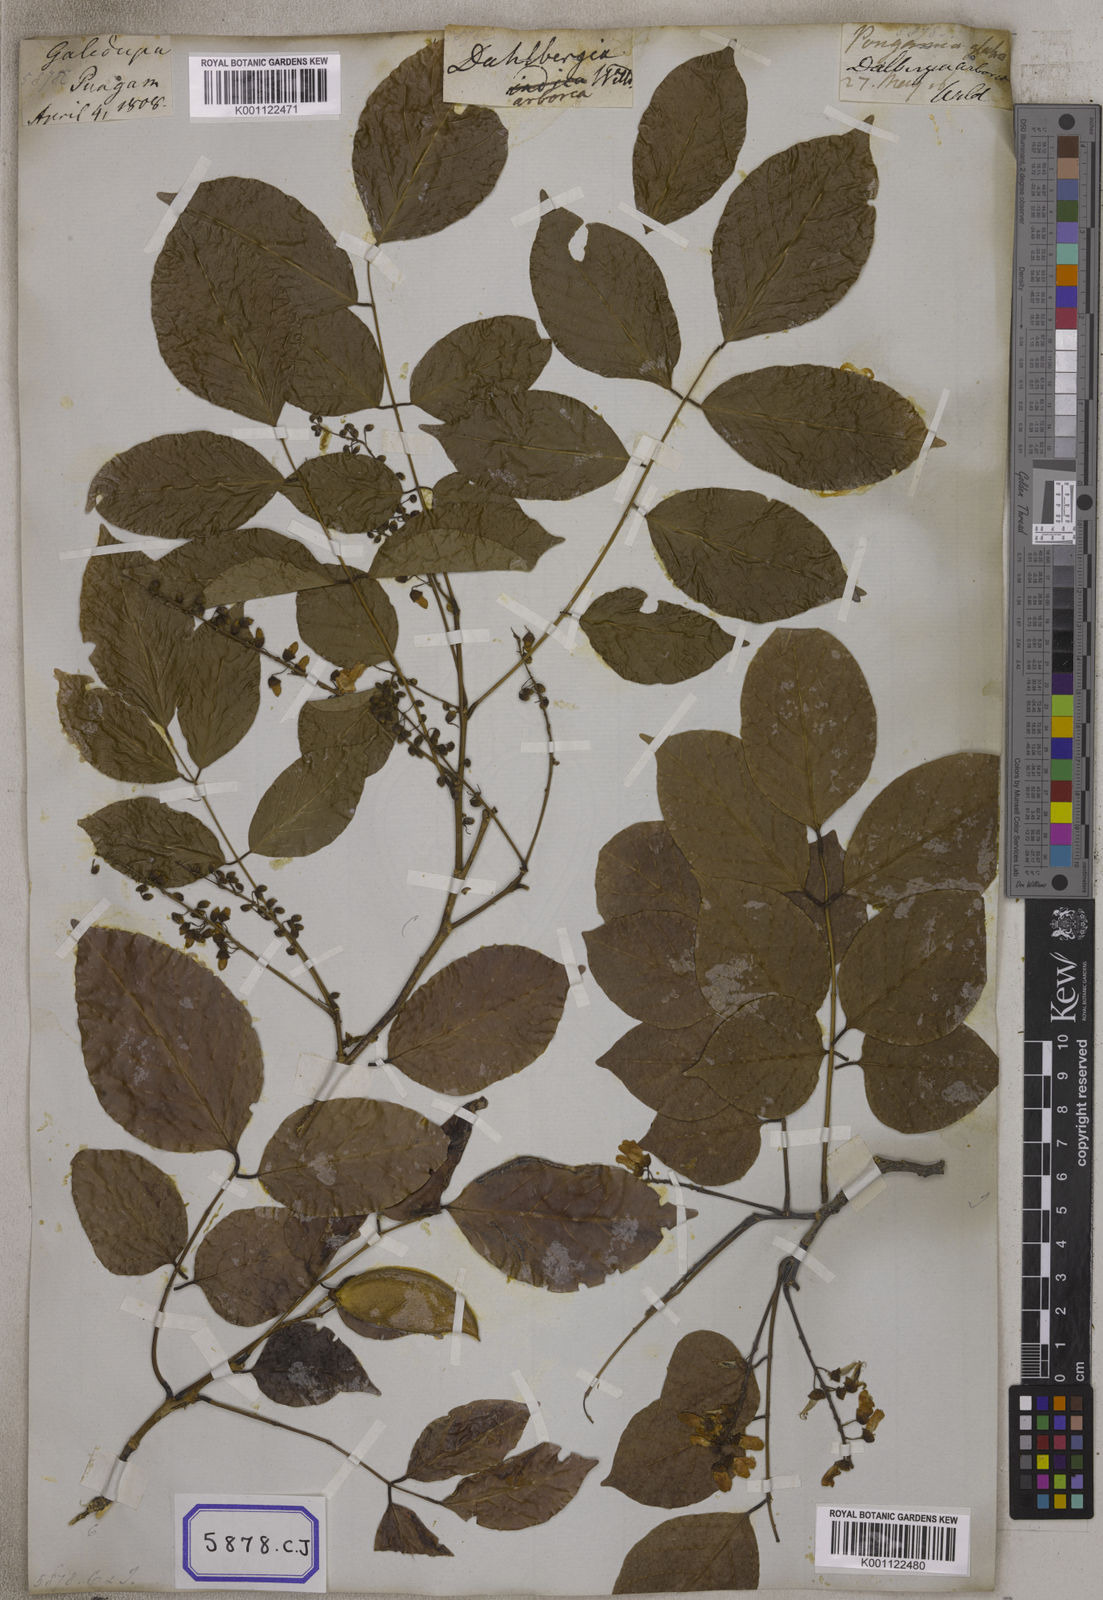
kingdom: Plantae
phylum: Tracheophyta
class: Magnoliopsida
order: Fabales
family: Fabaceae
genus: Pongamia
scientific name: Pongamia pinnata
